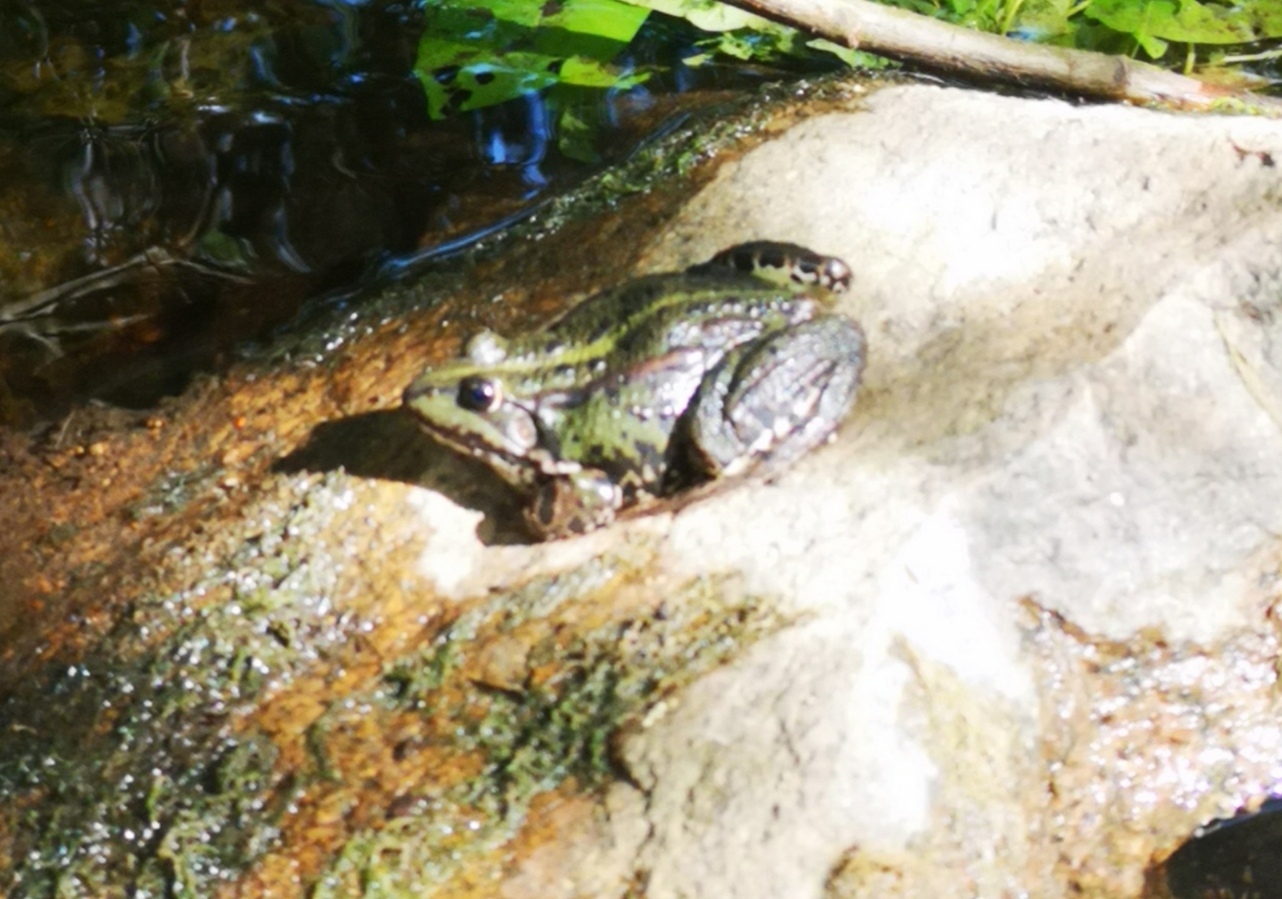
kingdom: Animalia
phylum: Chordata
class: Amphibia
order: Anura
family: Ranidae
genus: Pelophylax
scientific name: Pelophylax lessonae
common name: Grøn frø
